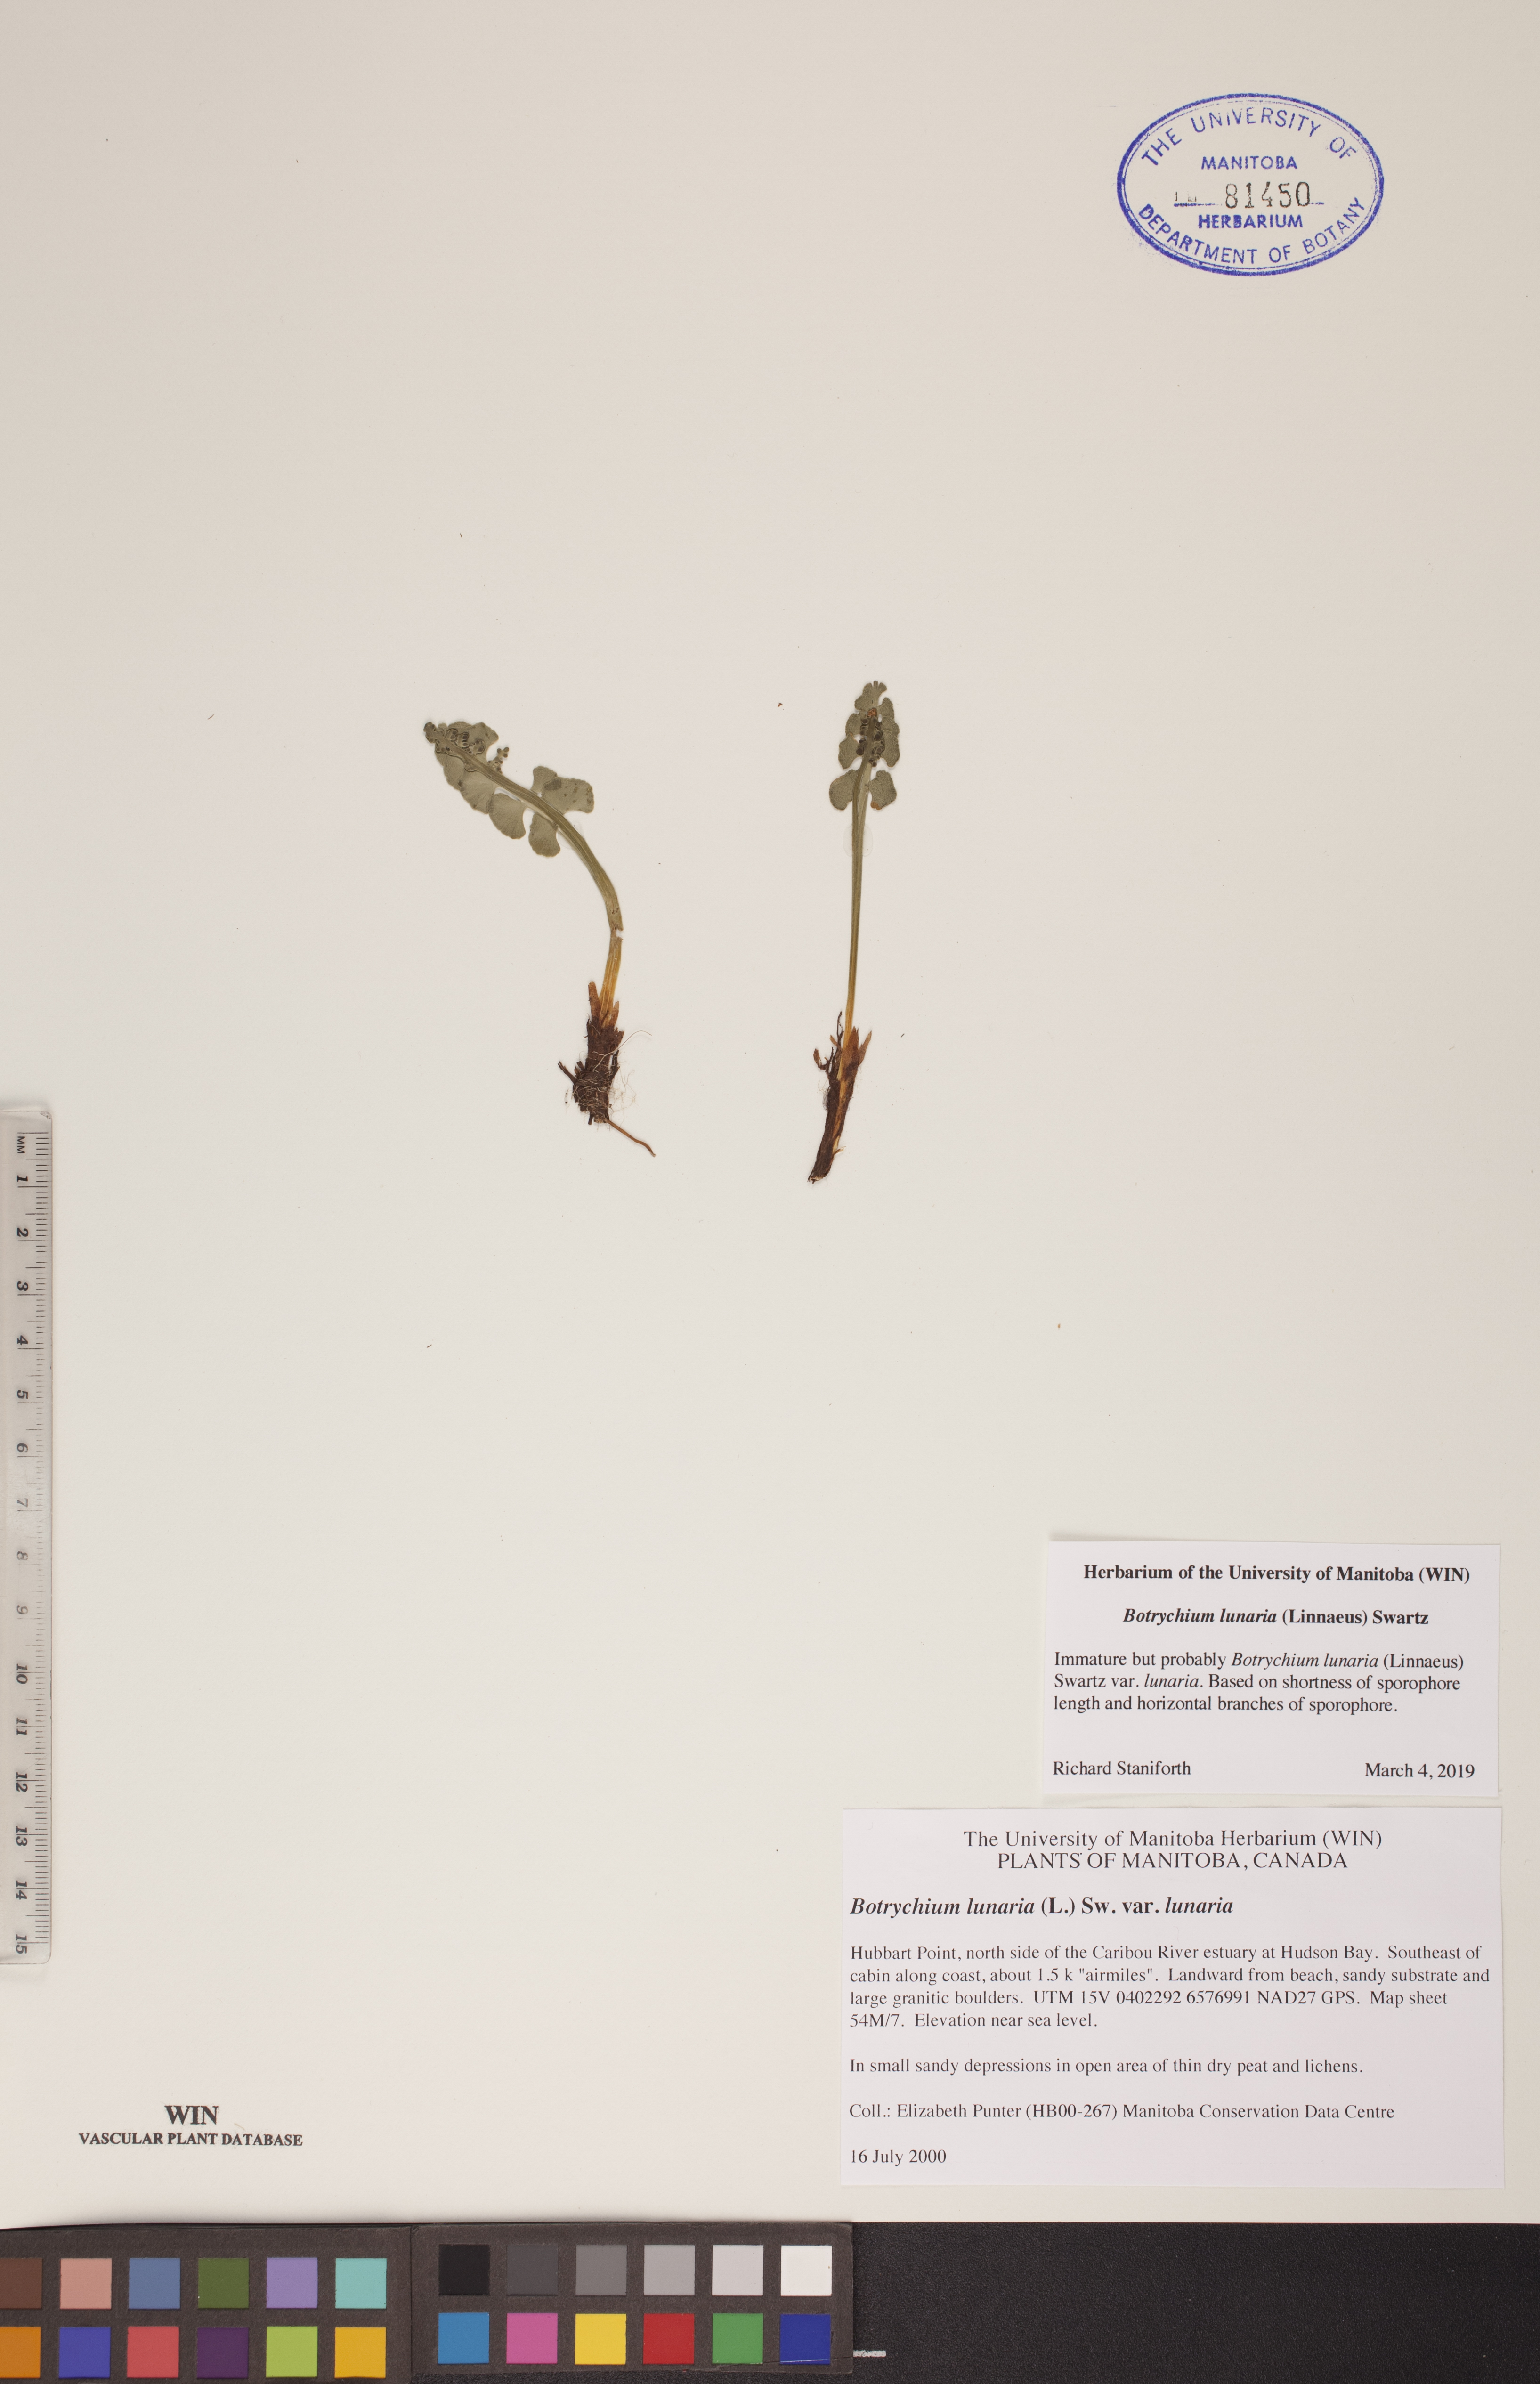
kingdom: Plantae
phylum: Tracheophyta
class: Polypodiopsida
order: Ophioglossales
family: Ophioglossaceae
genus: Botrychium
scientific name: Botrychium lunaria
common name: Moonwort
